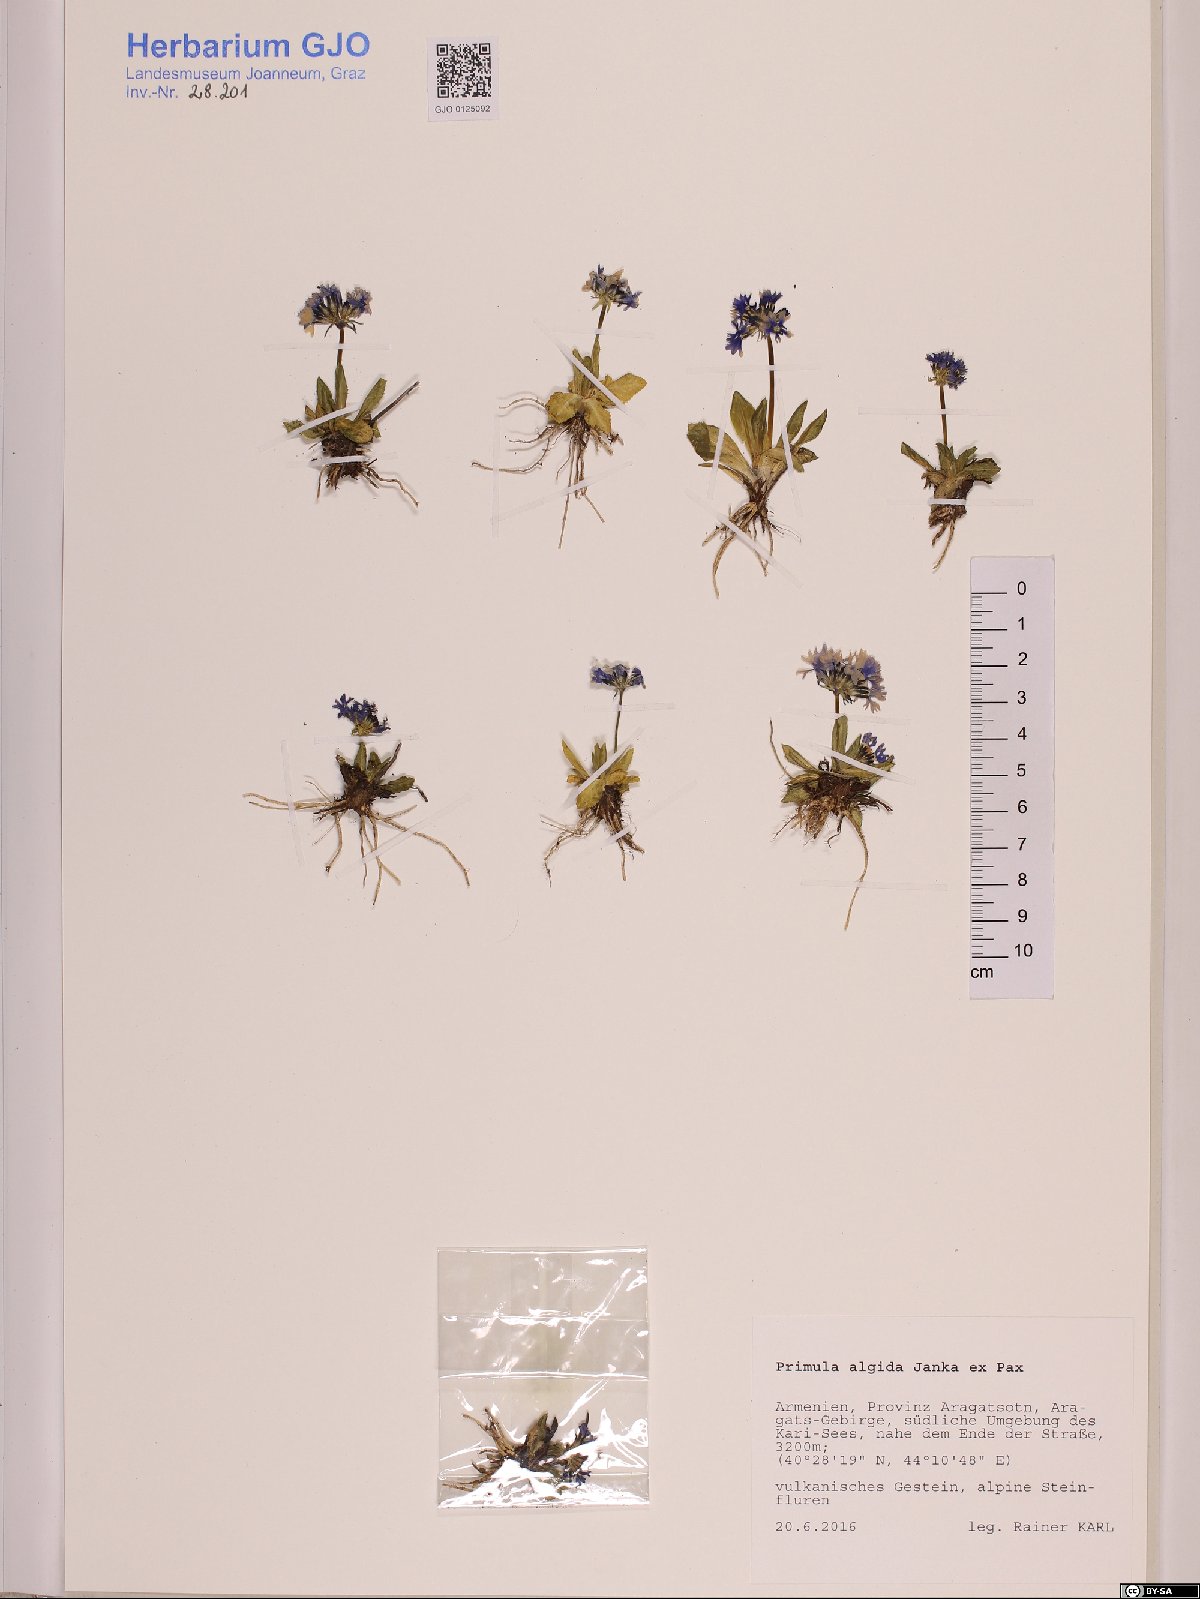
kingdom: Plantae
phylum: Tracheophyta
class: Magnoliopsida
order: Ericales
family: Primulaceae
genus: Primula
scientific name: Primula algida
